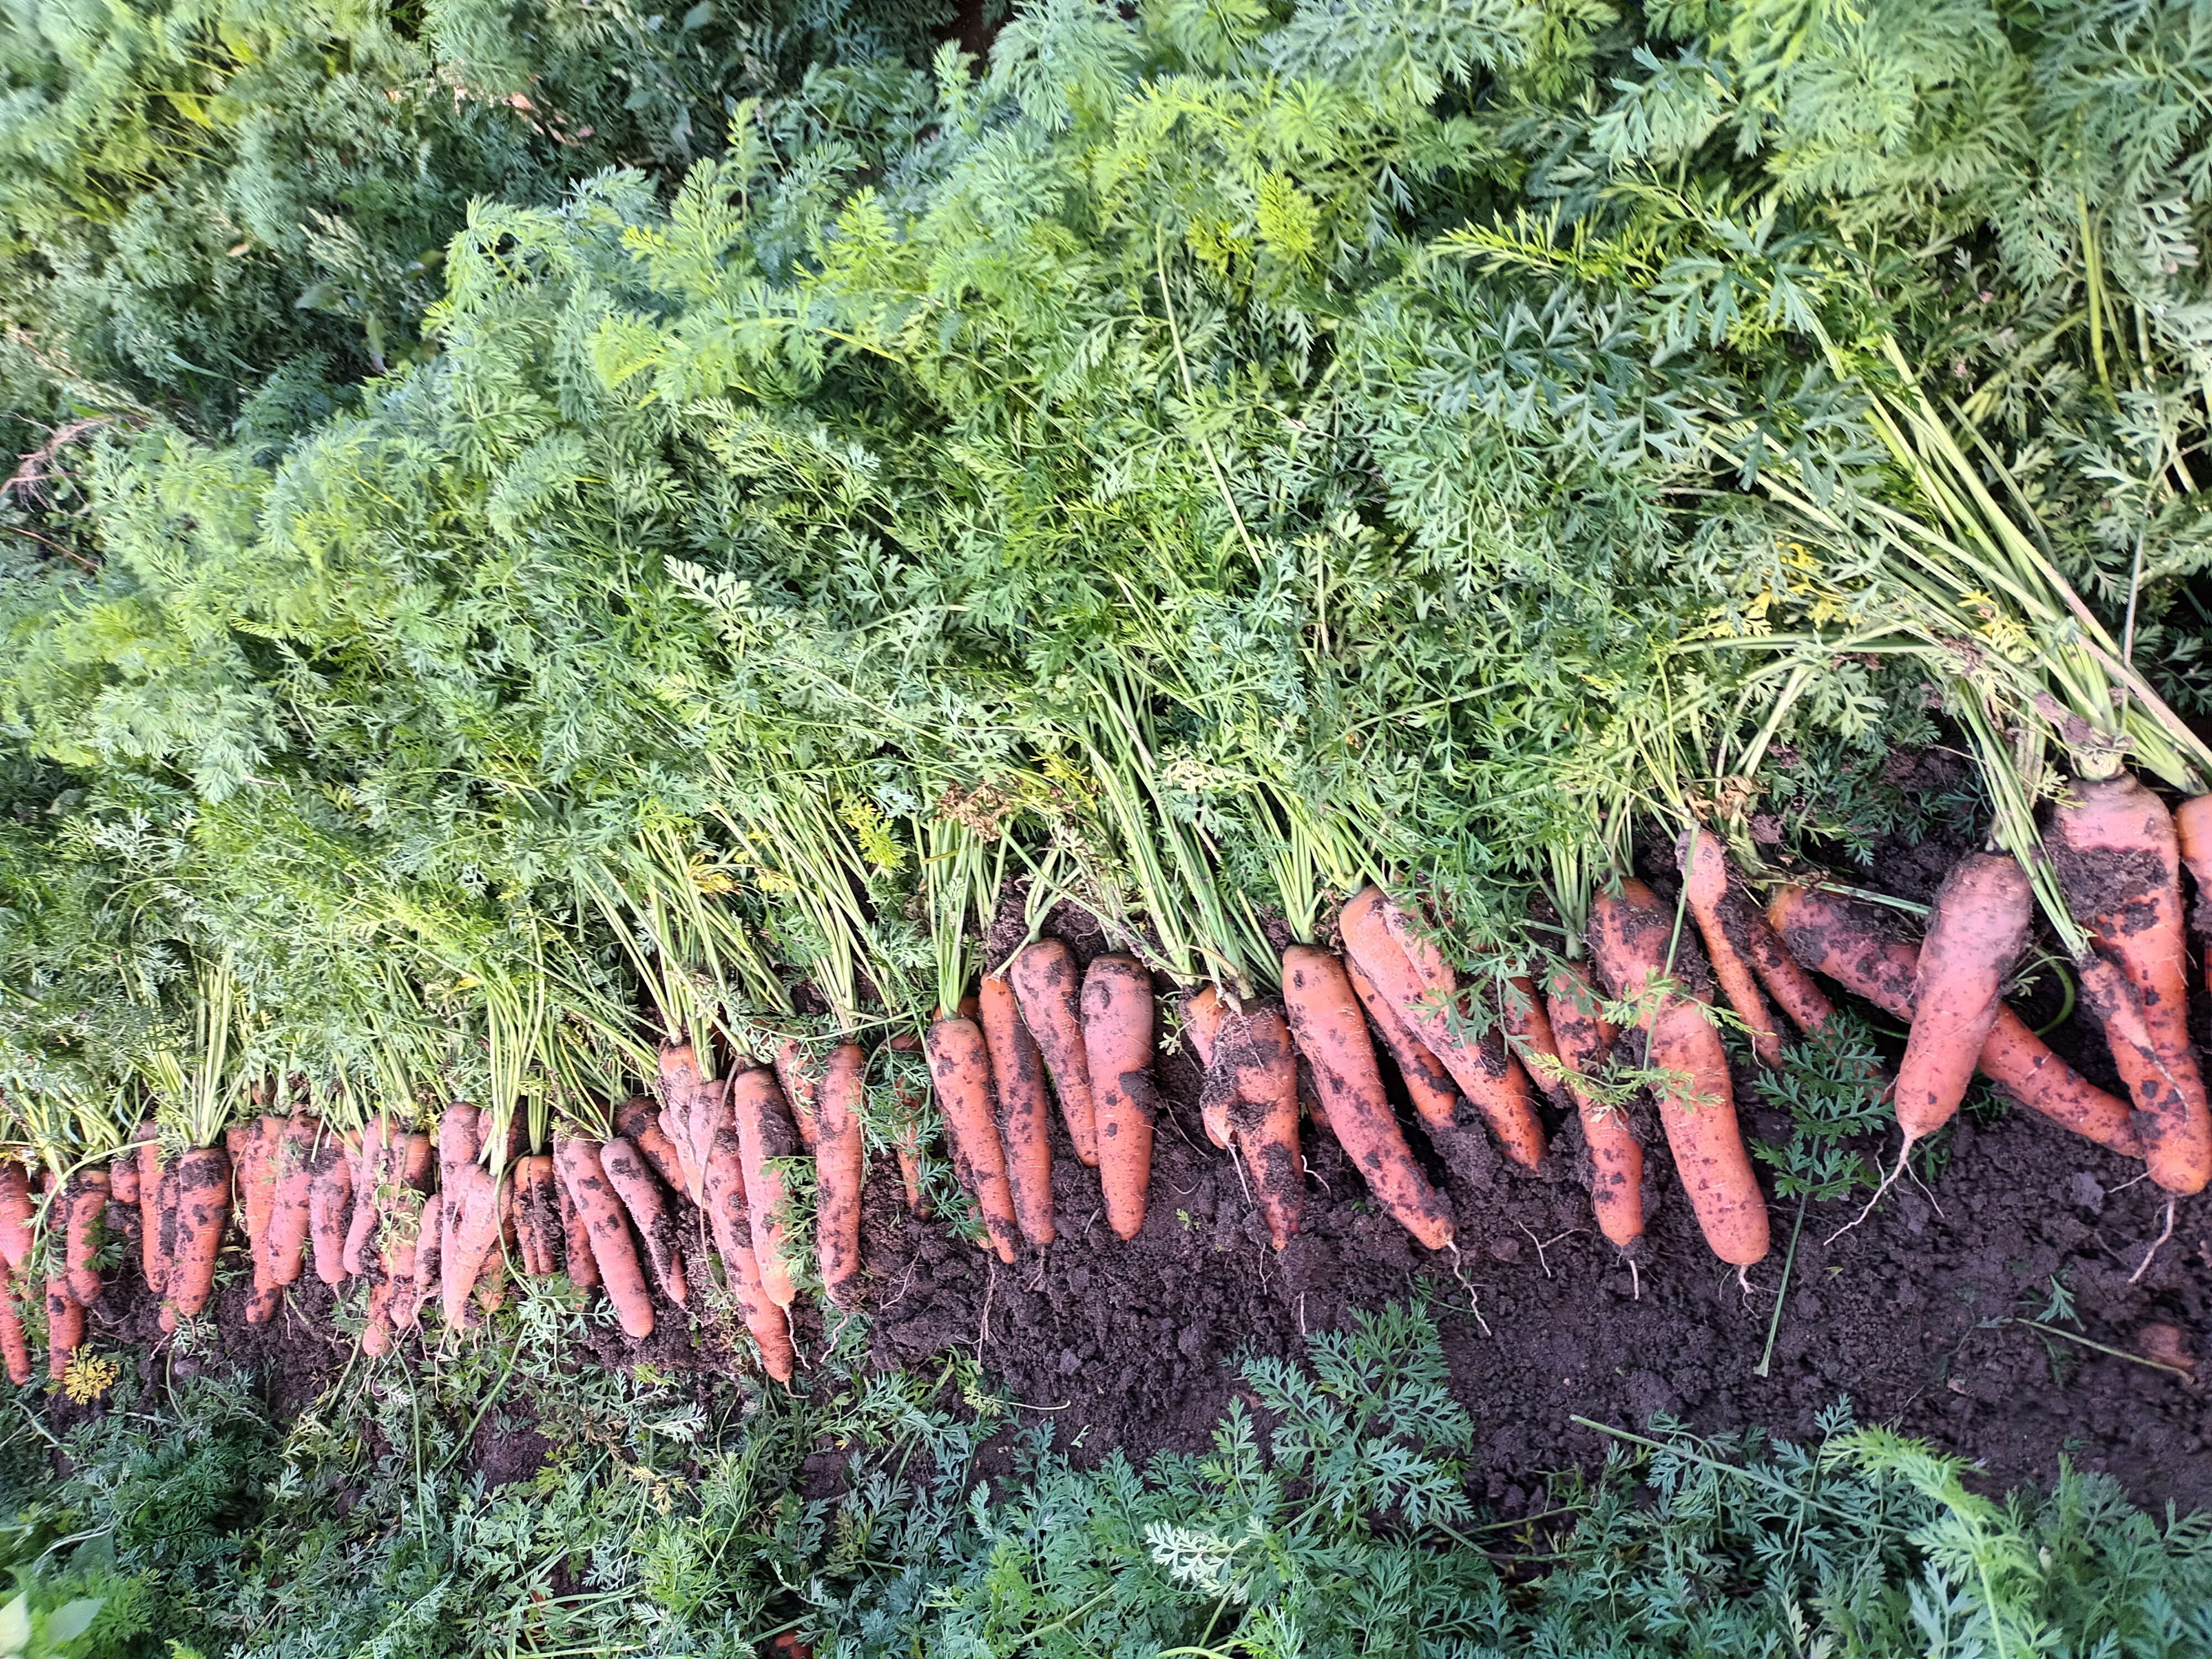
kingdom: Plantae
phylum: Tracheophyta
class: Magnoliopsida
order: Apiales
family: Apiaceae
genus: Daucus
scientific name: Daucus carota
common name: Wild carrot
